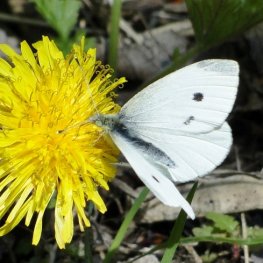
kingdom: Animalia
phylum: Arthropoda
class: Insecta
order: Lepidoptera
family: Pieridae
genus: Pieris
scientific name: Pieris rapae
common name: Cabbage White
